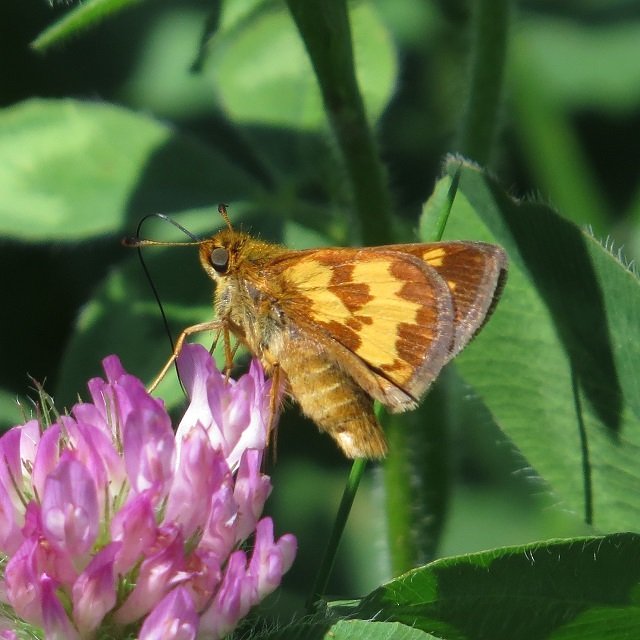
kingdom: Animalia
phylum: Arthropoda
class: Insecta
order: Lepidoptera
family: Hesperiidae
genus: Polites
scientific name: Polites coras
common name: Peck's Skipper
